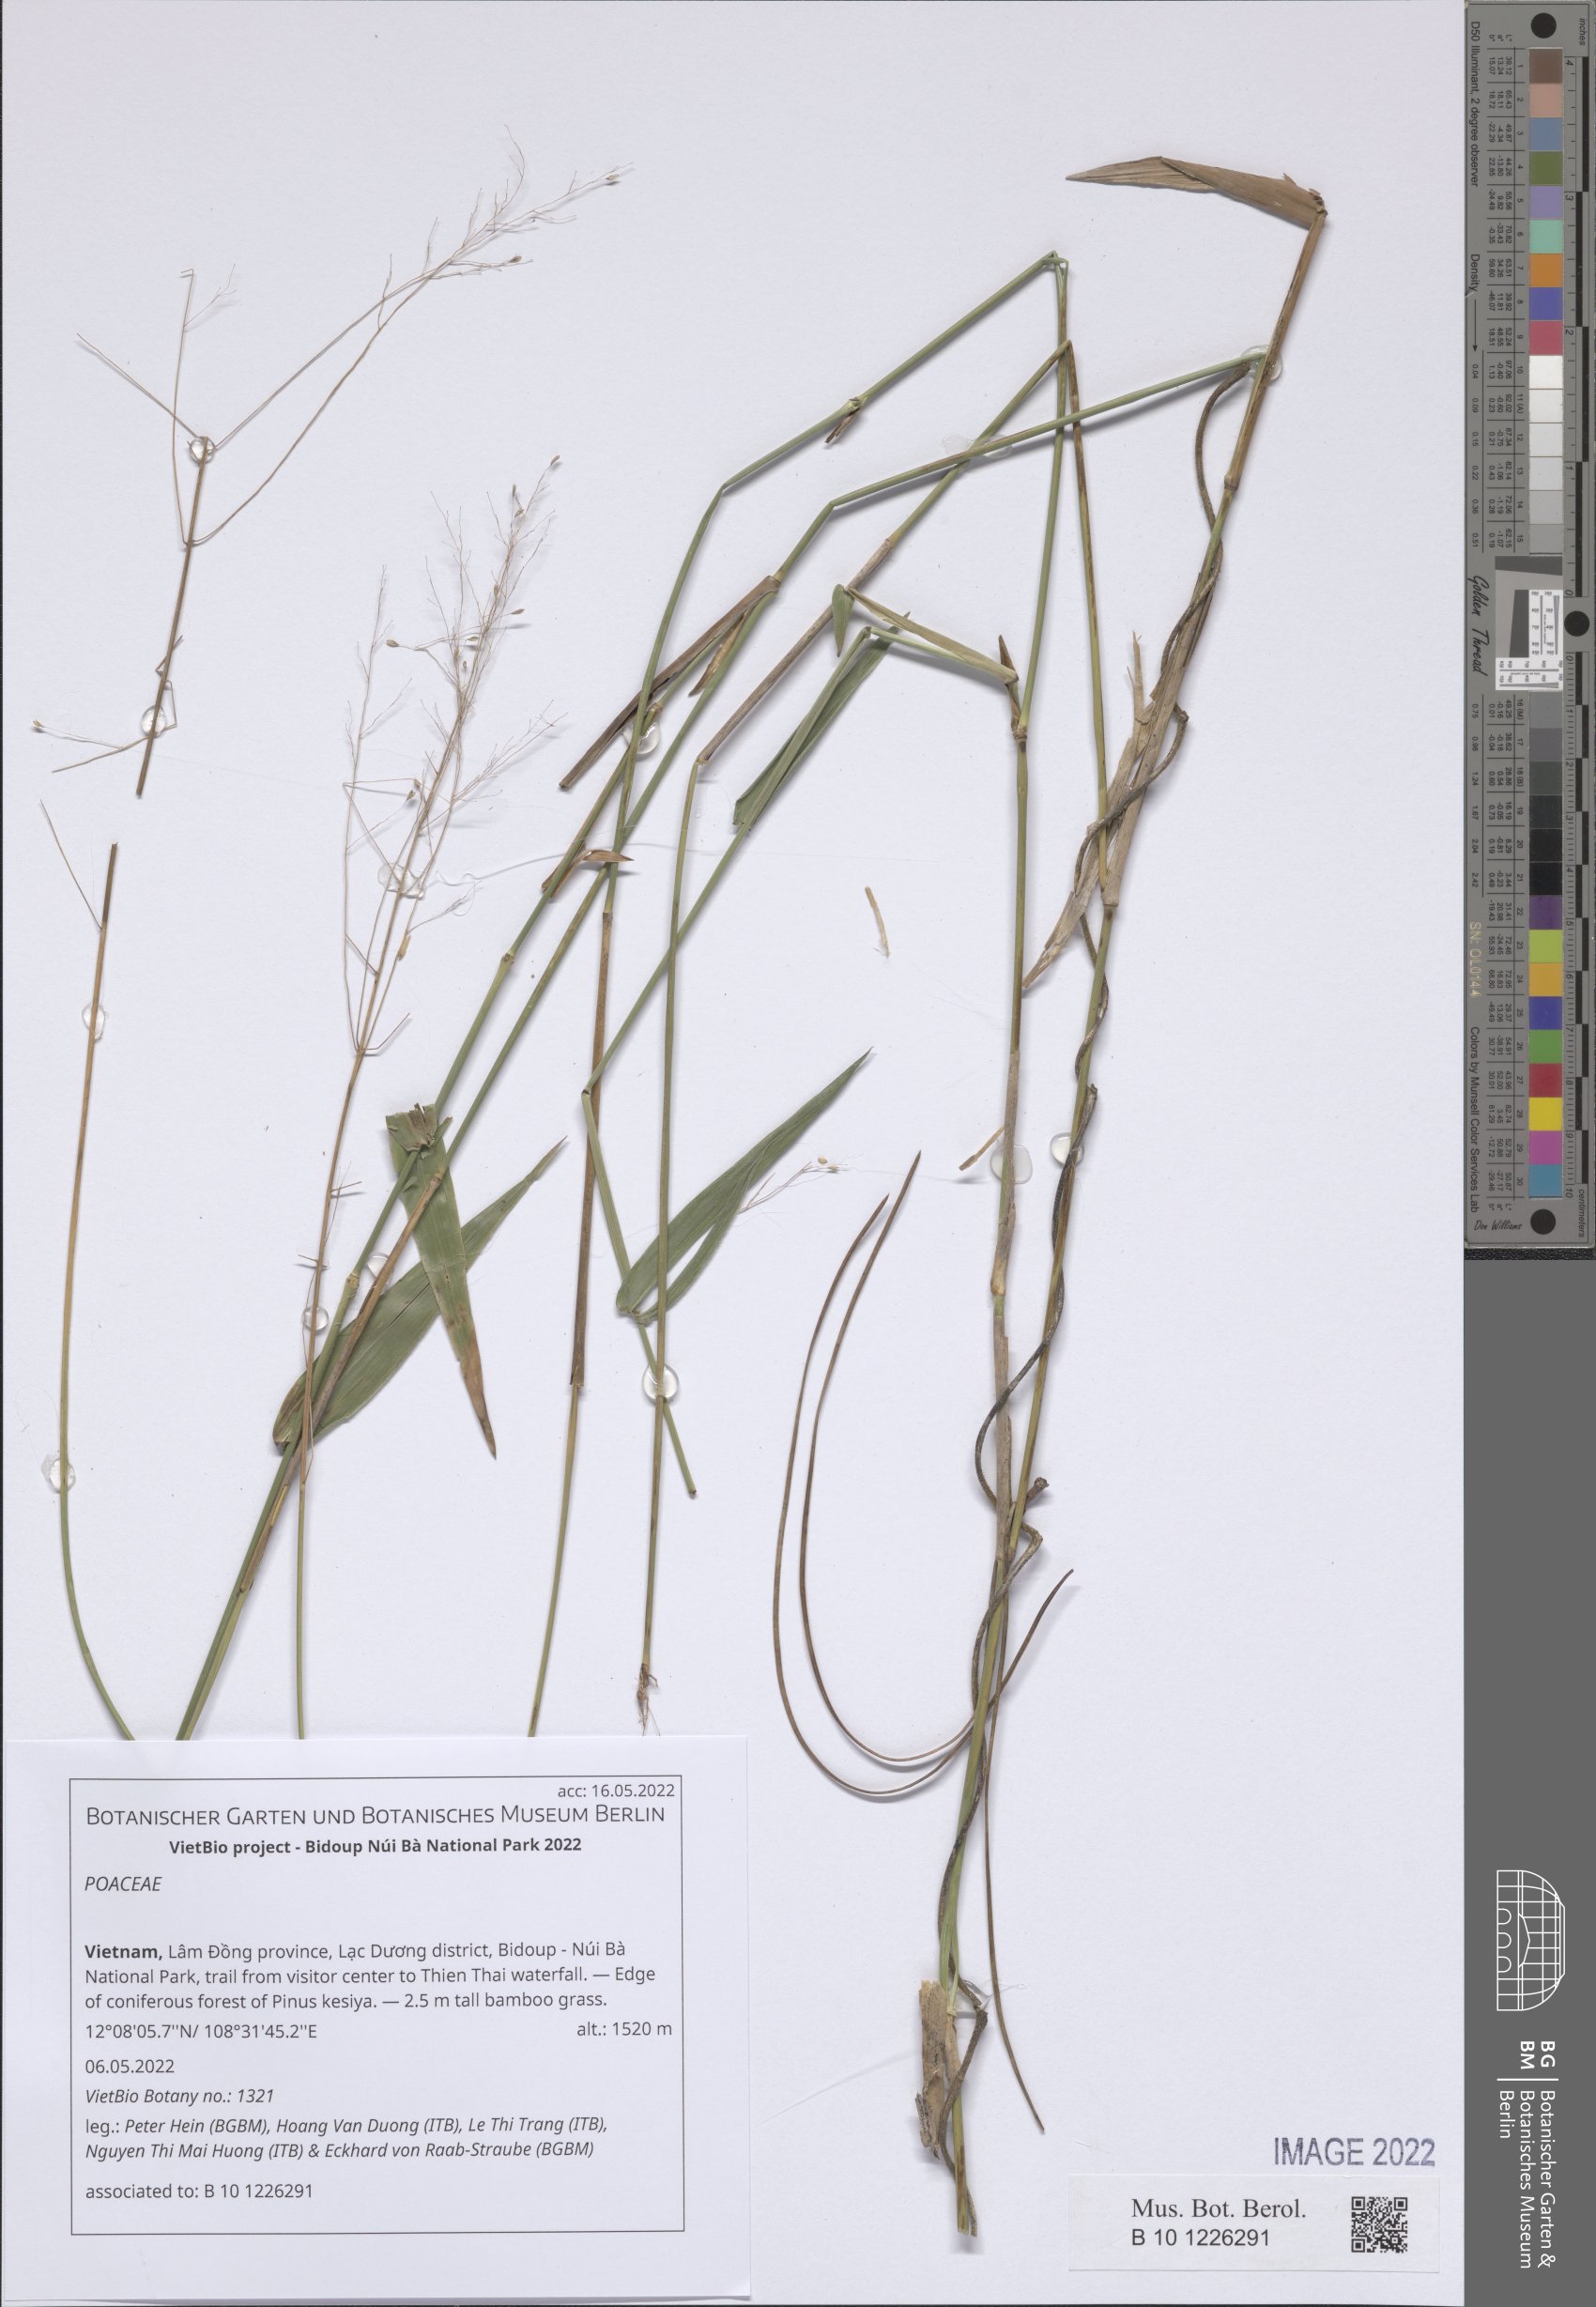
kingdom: Plantae
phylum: Tracheophyta
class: Liliopsida
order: Poales
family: Poaceae
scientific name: Poaceae
